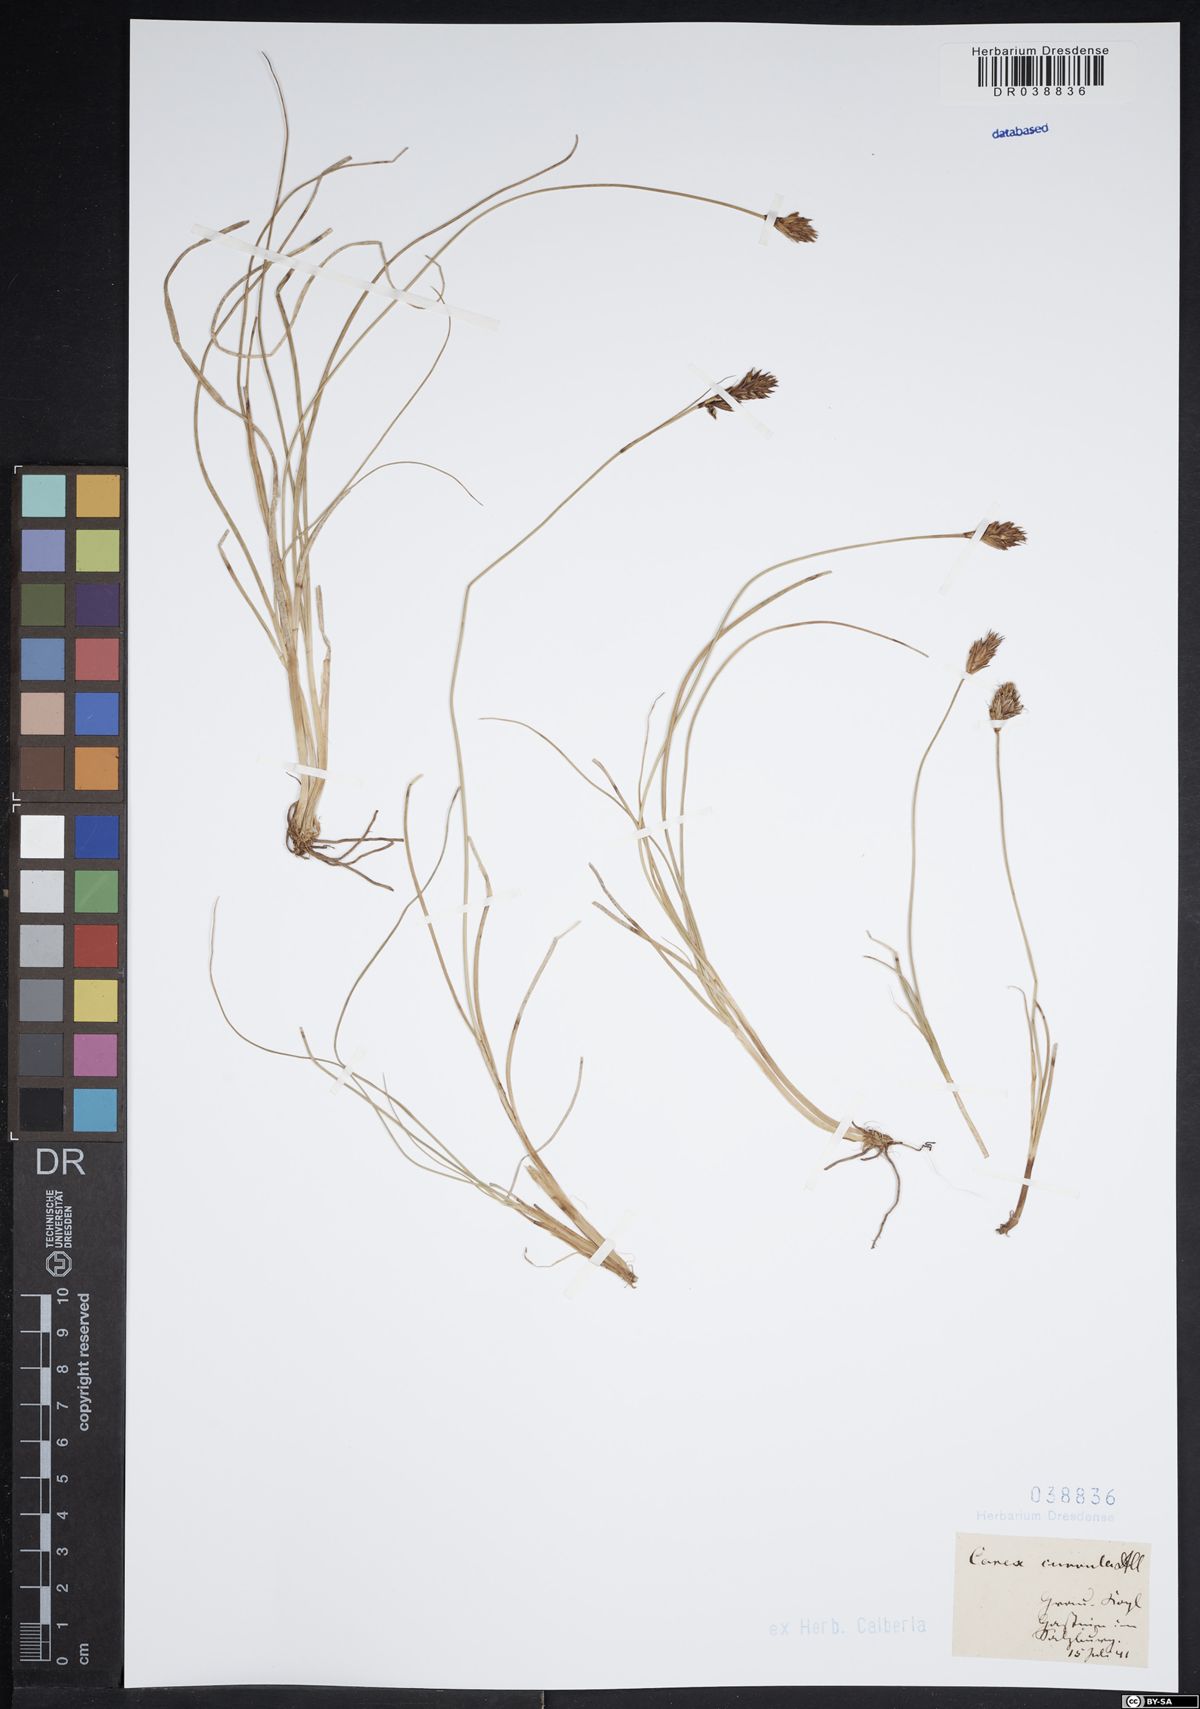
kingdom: Plantae
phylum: Tracheophyta
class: Liliopsida
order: Poales
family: Cyperaceae
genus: Carex
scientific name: Carex curvula
